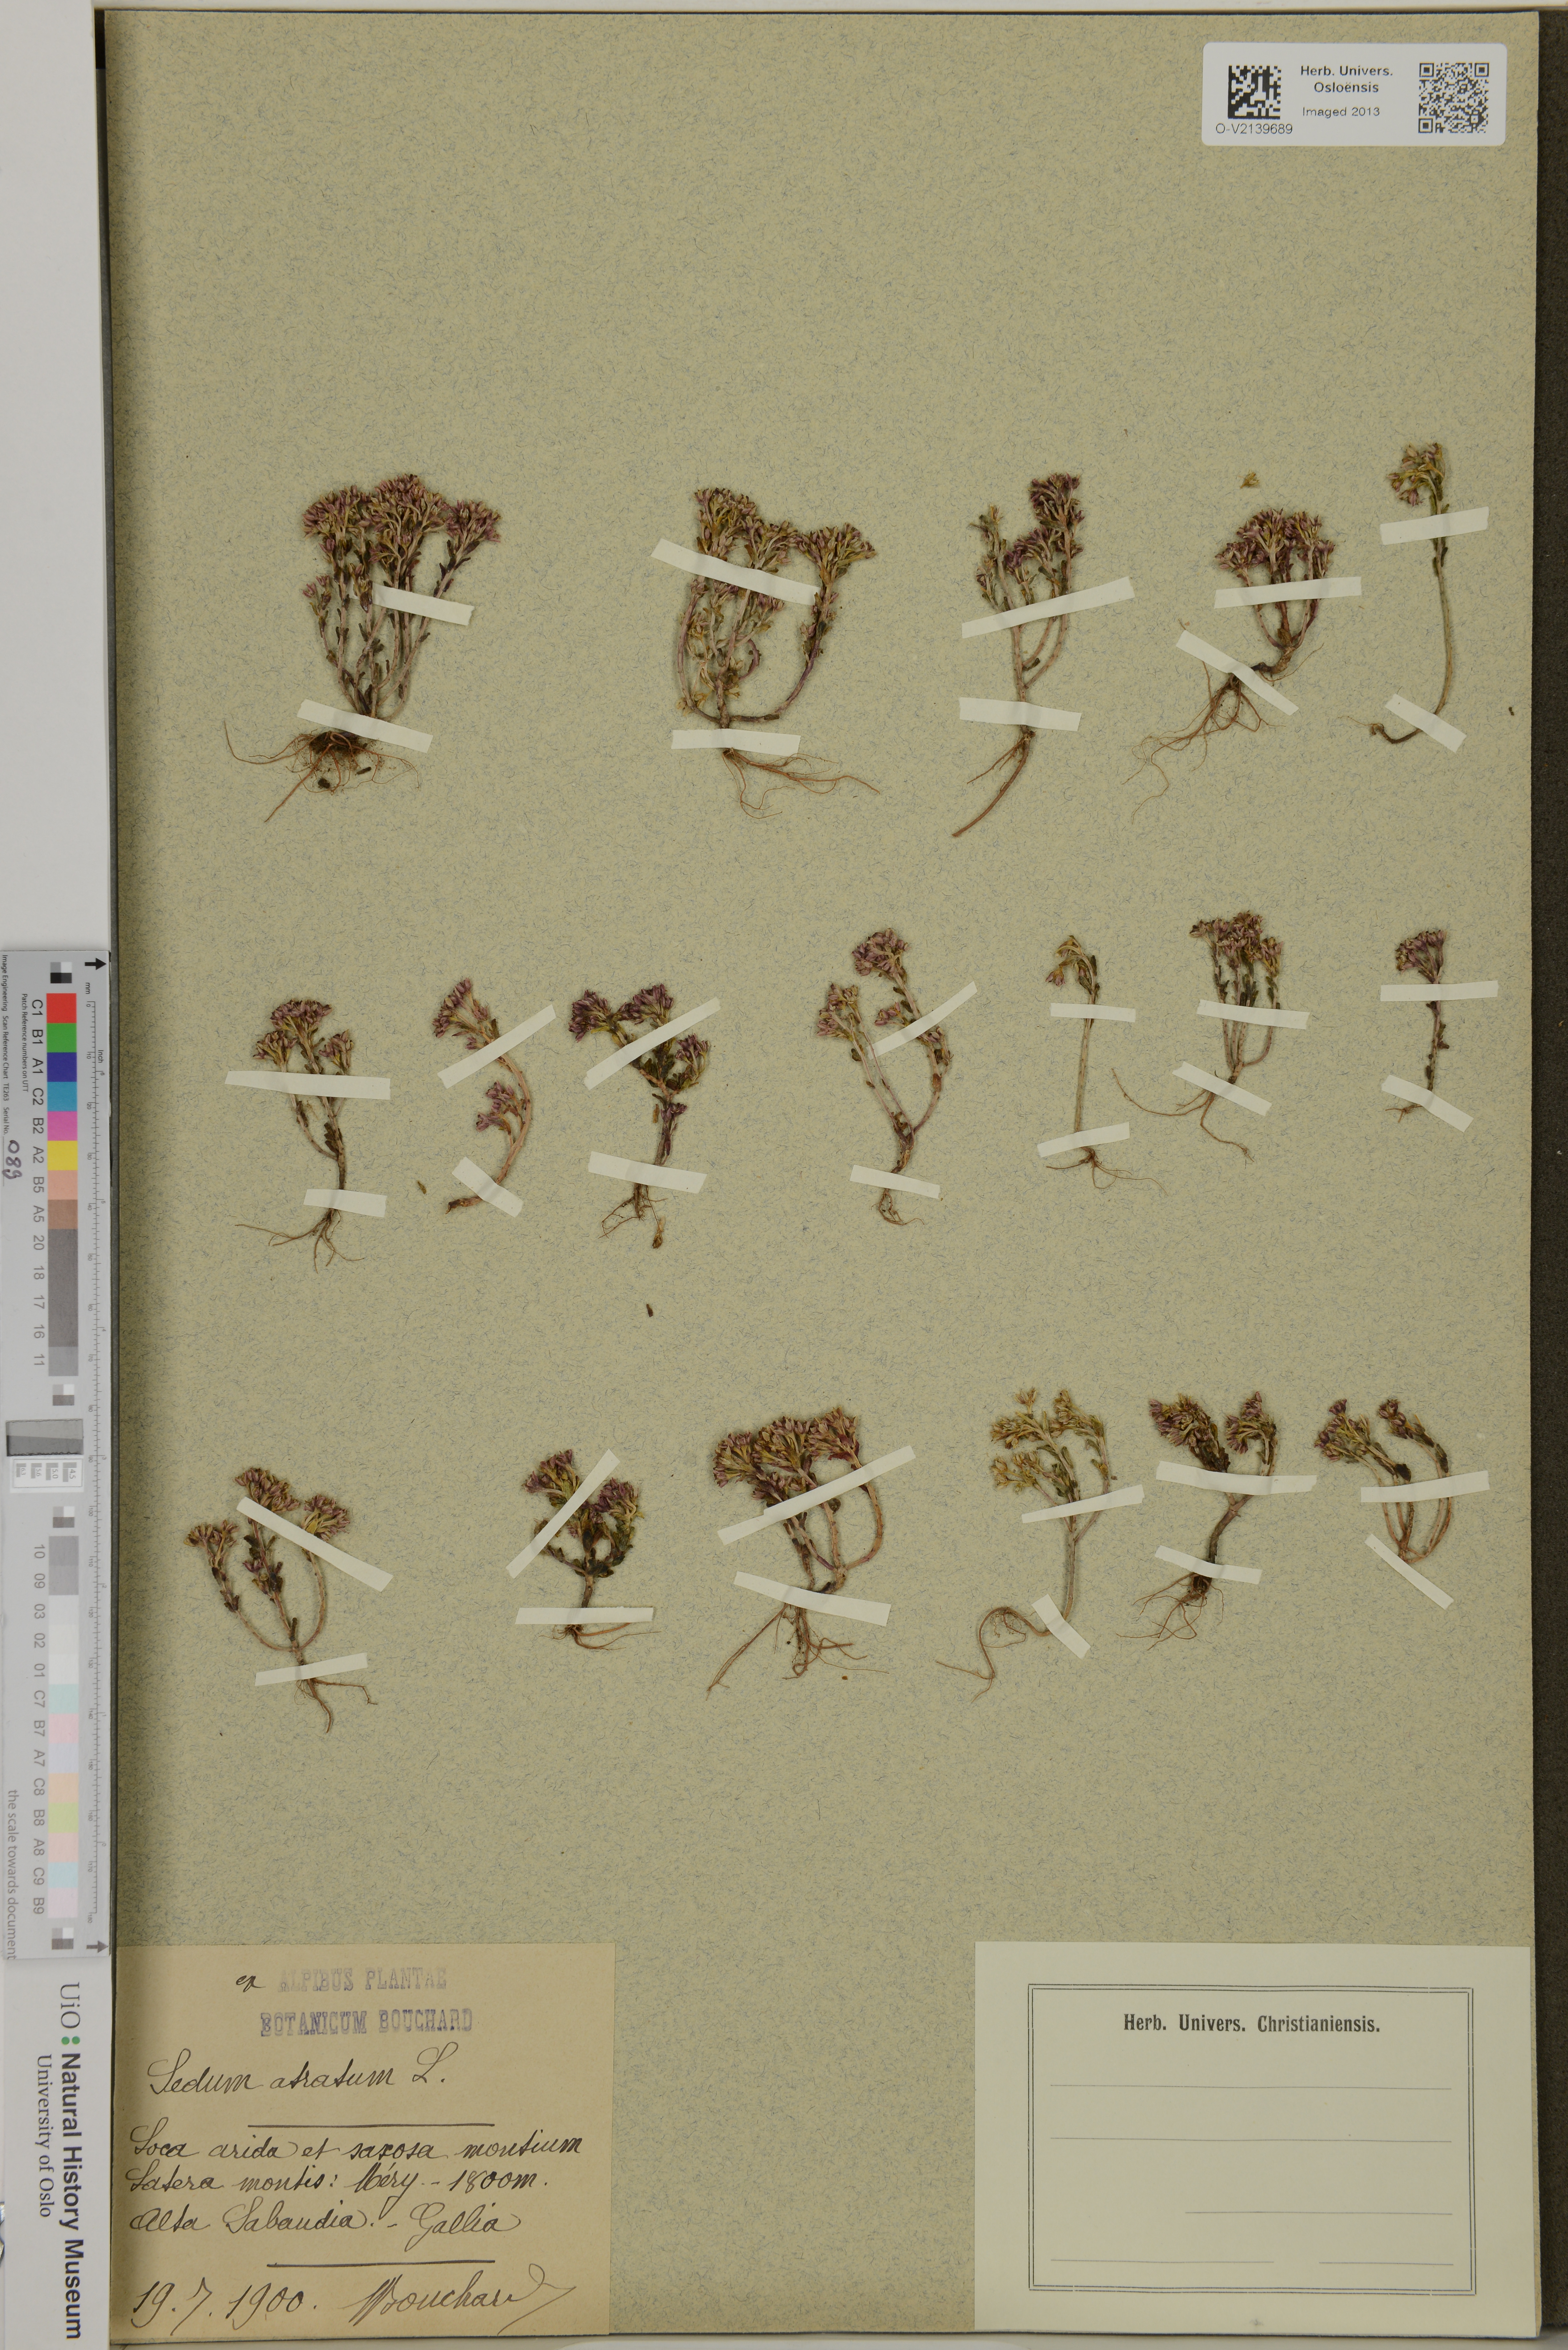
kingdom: Plantae
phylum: Tracheophyta
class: Magnoliopsida
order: Saxifragales
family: Crassulaceae
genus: Sedum
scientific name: Sedum atratum
